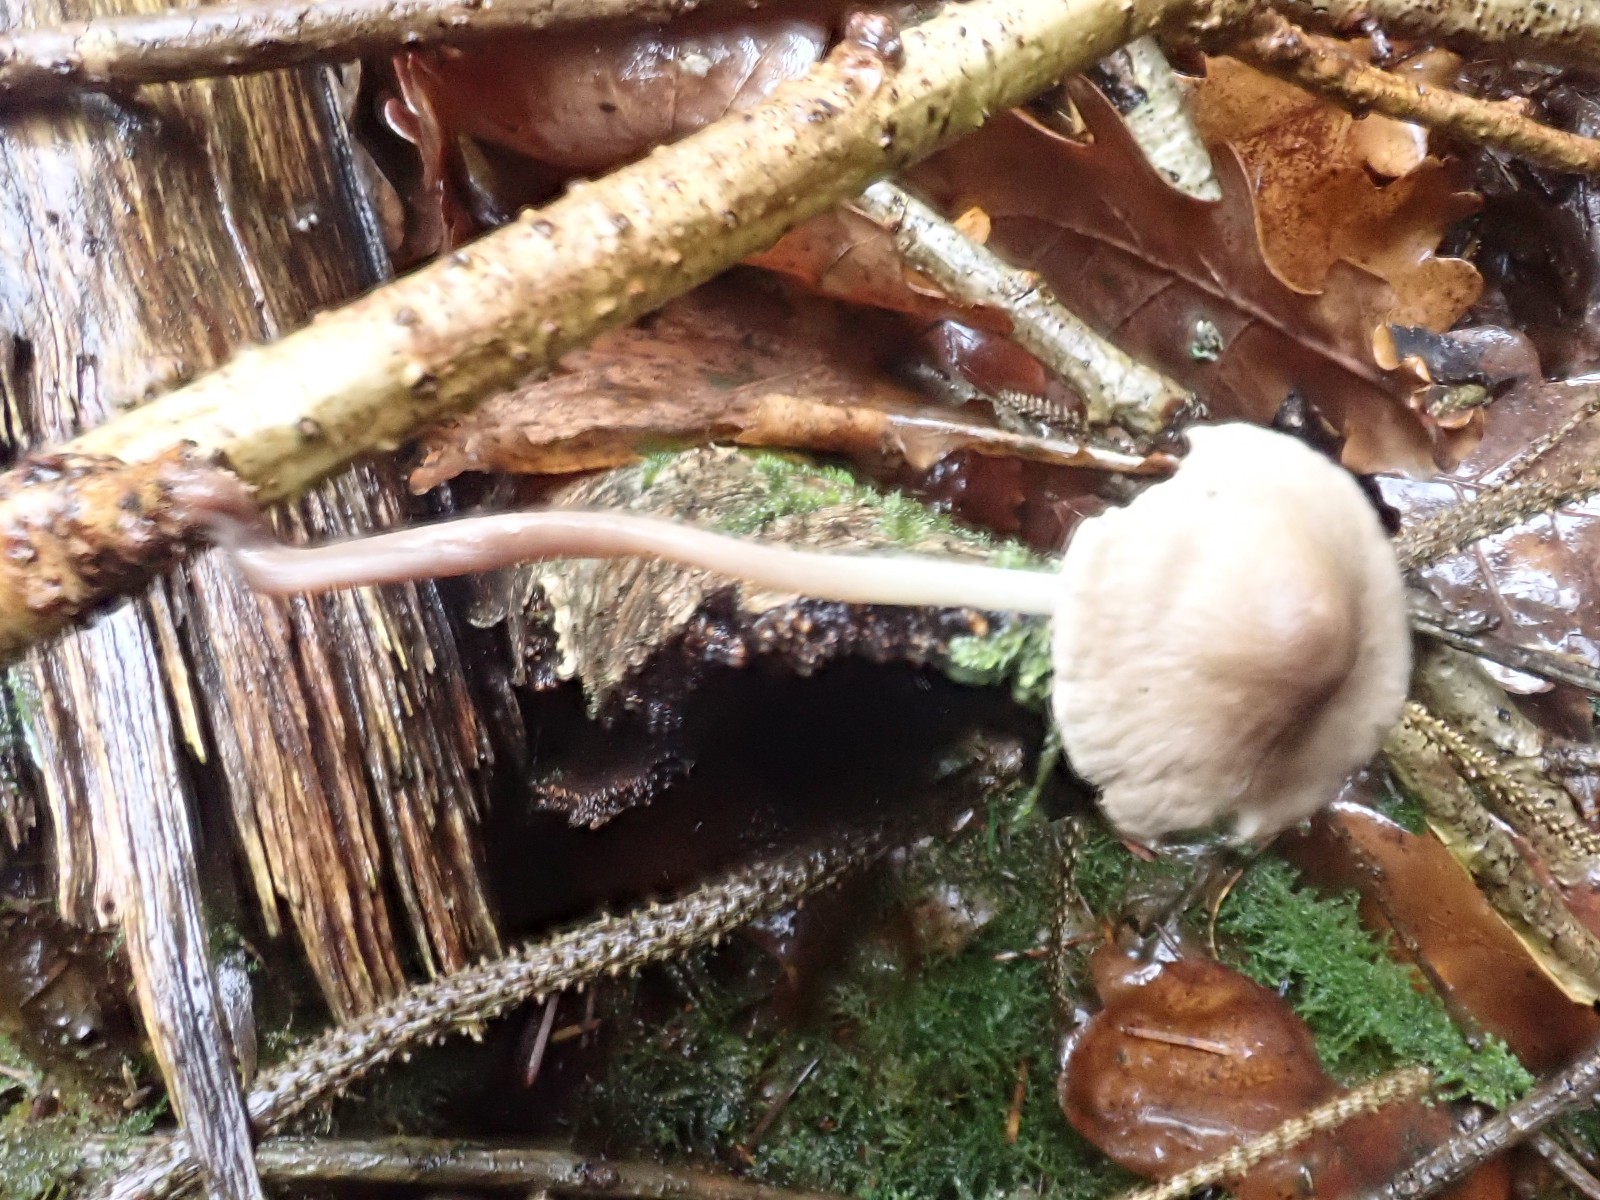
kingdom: Fungi
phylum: Basidiomycota
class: Agaricomycetes
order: Agaricales
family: Mycenaceae
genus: Mycena
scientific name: Mycena galericulata
